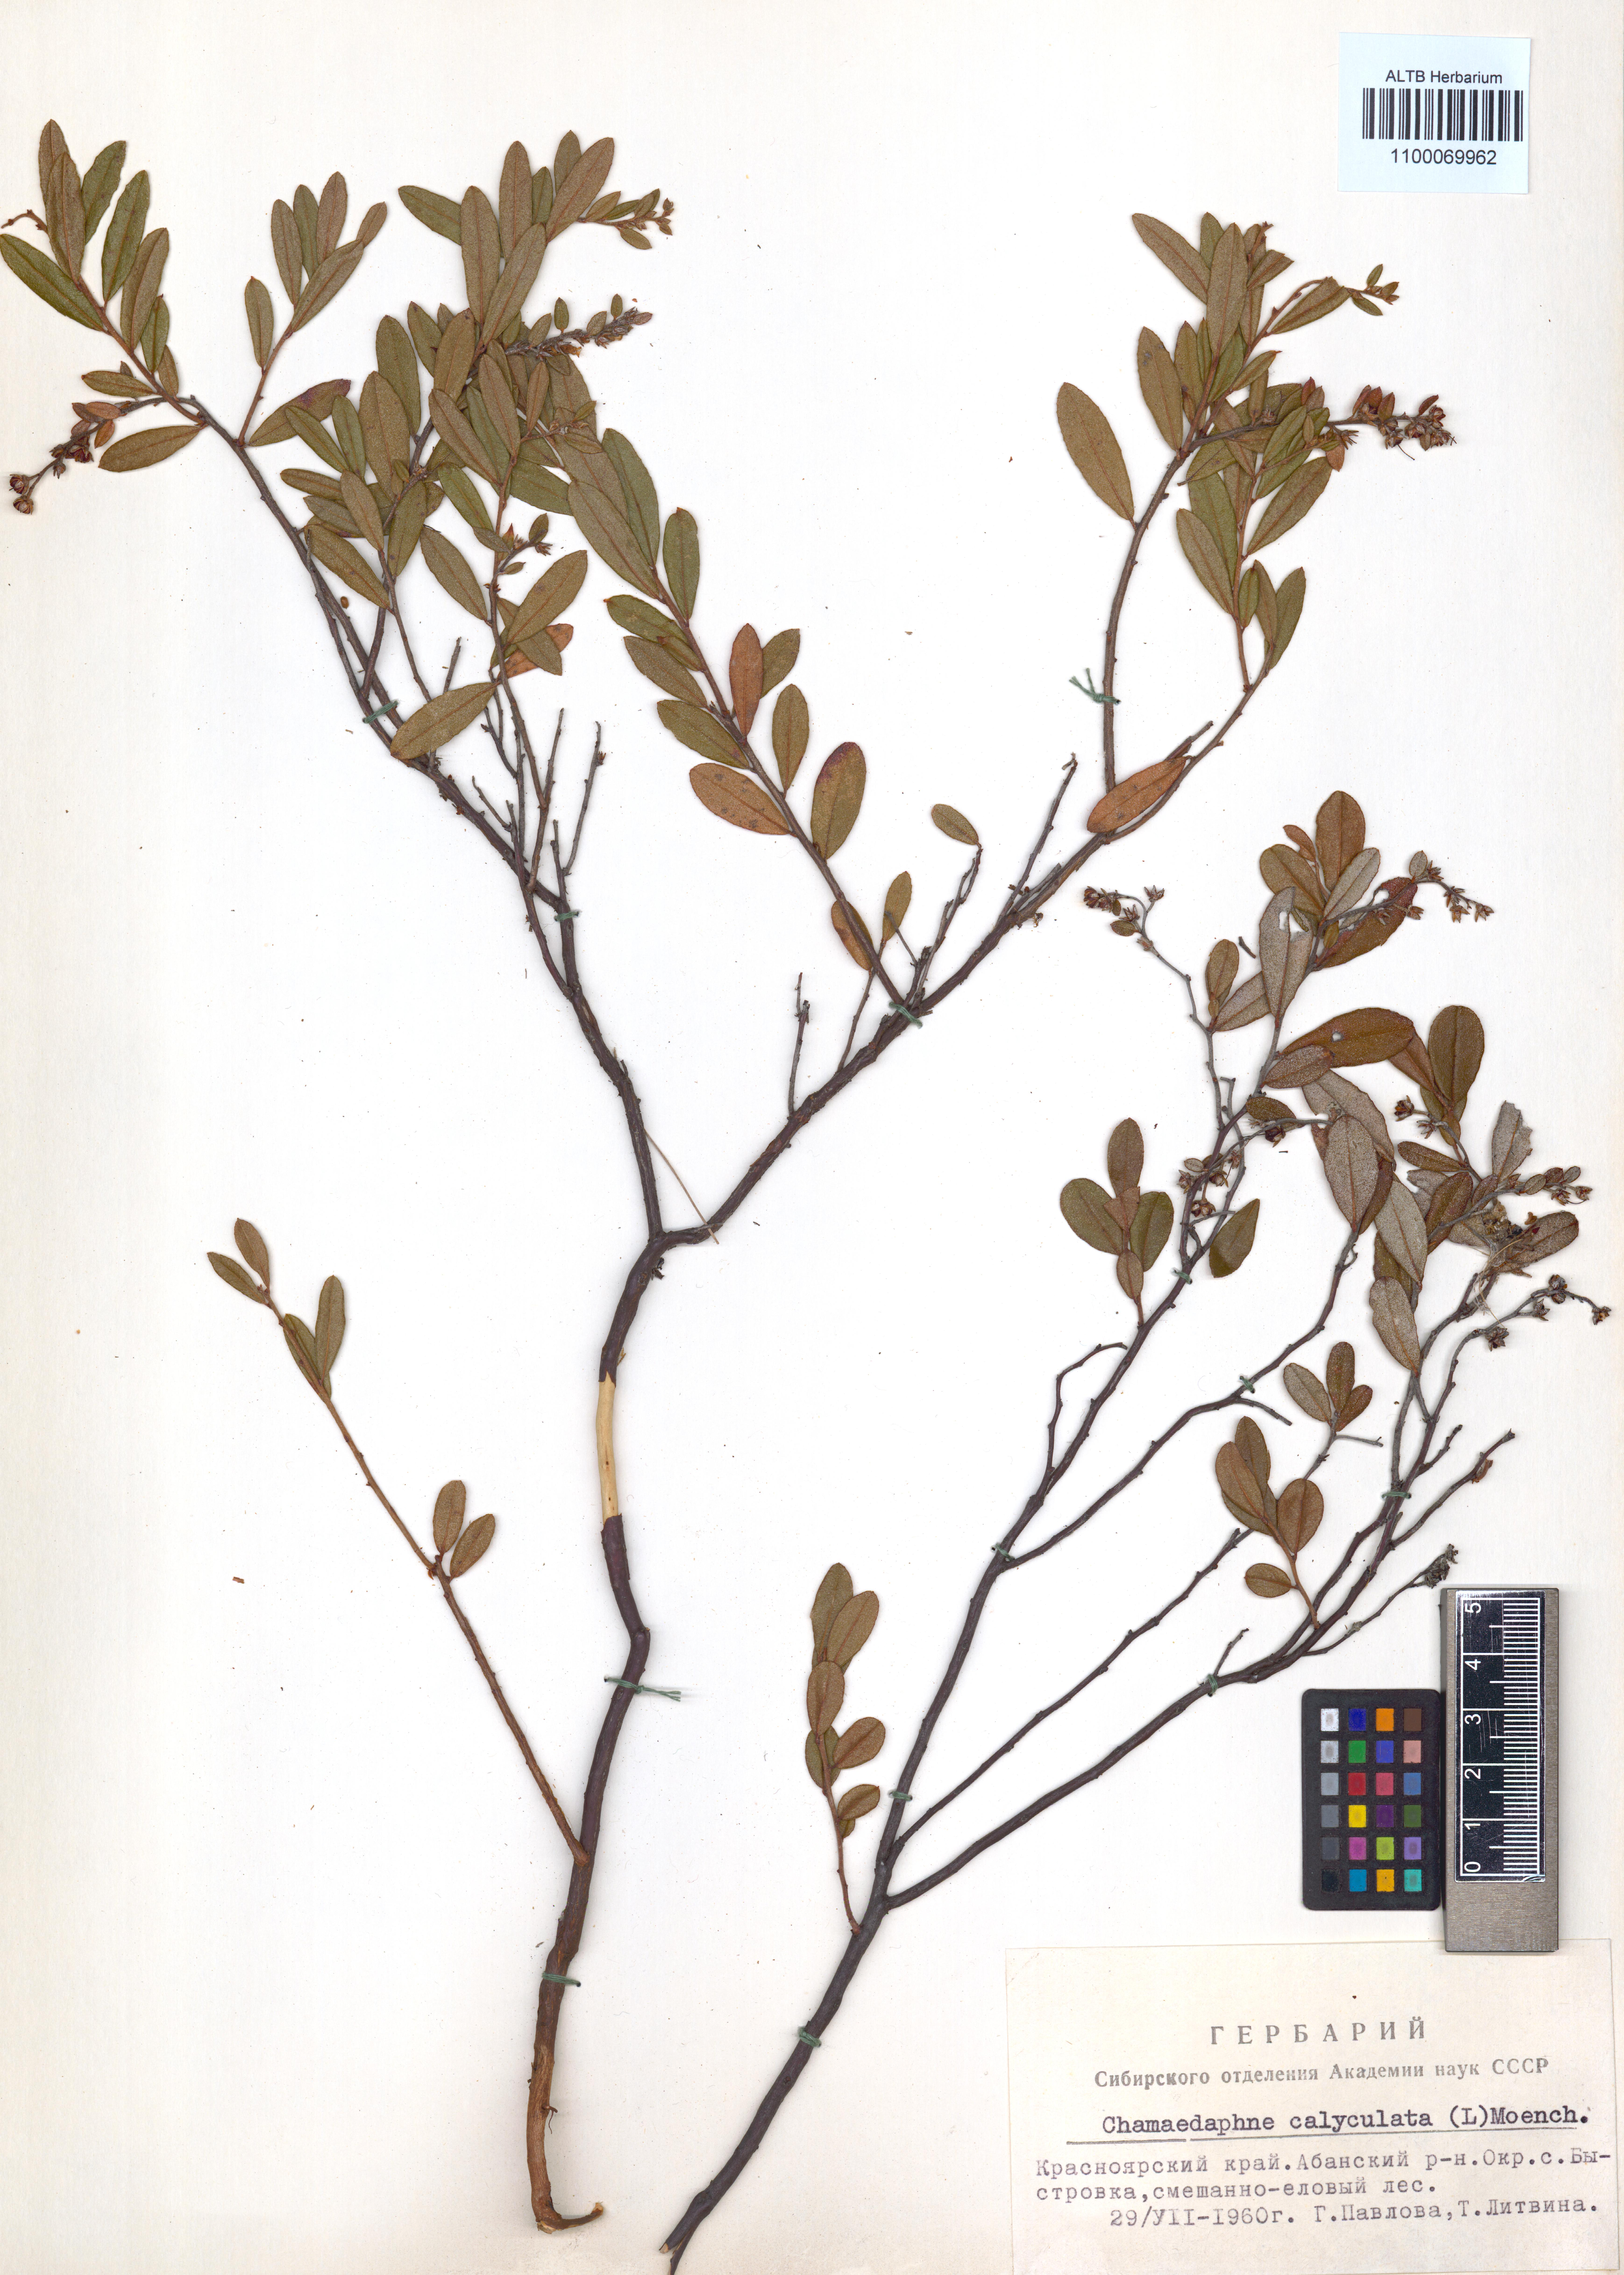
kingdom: Plantae
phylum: Tracheophyta
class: Magnoliopsida
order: Ericales
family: Ericaceae
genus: Chamaedaphne
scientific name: Chamaedaphne calyculata
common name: Leatherleaf
